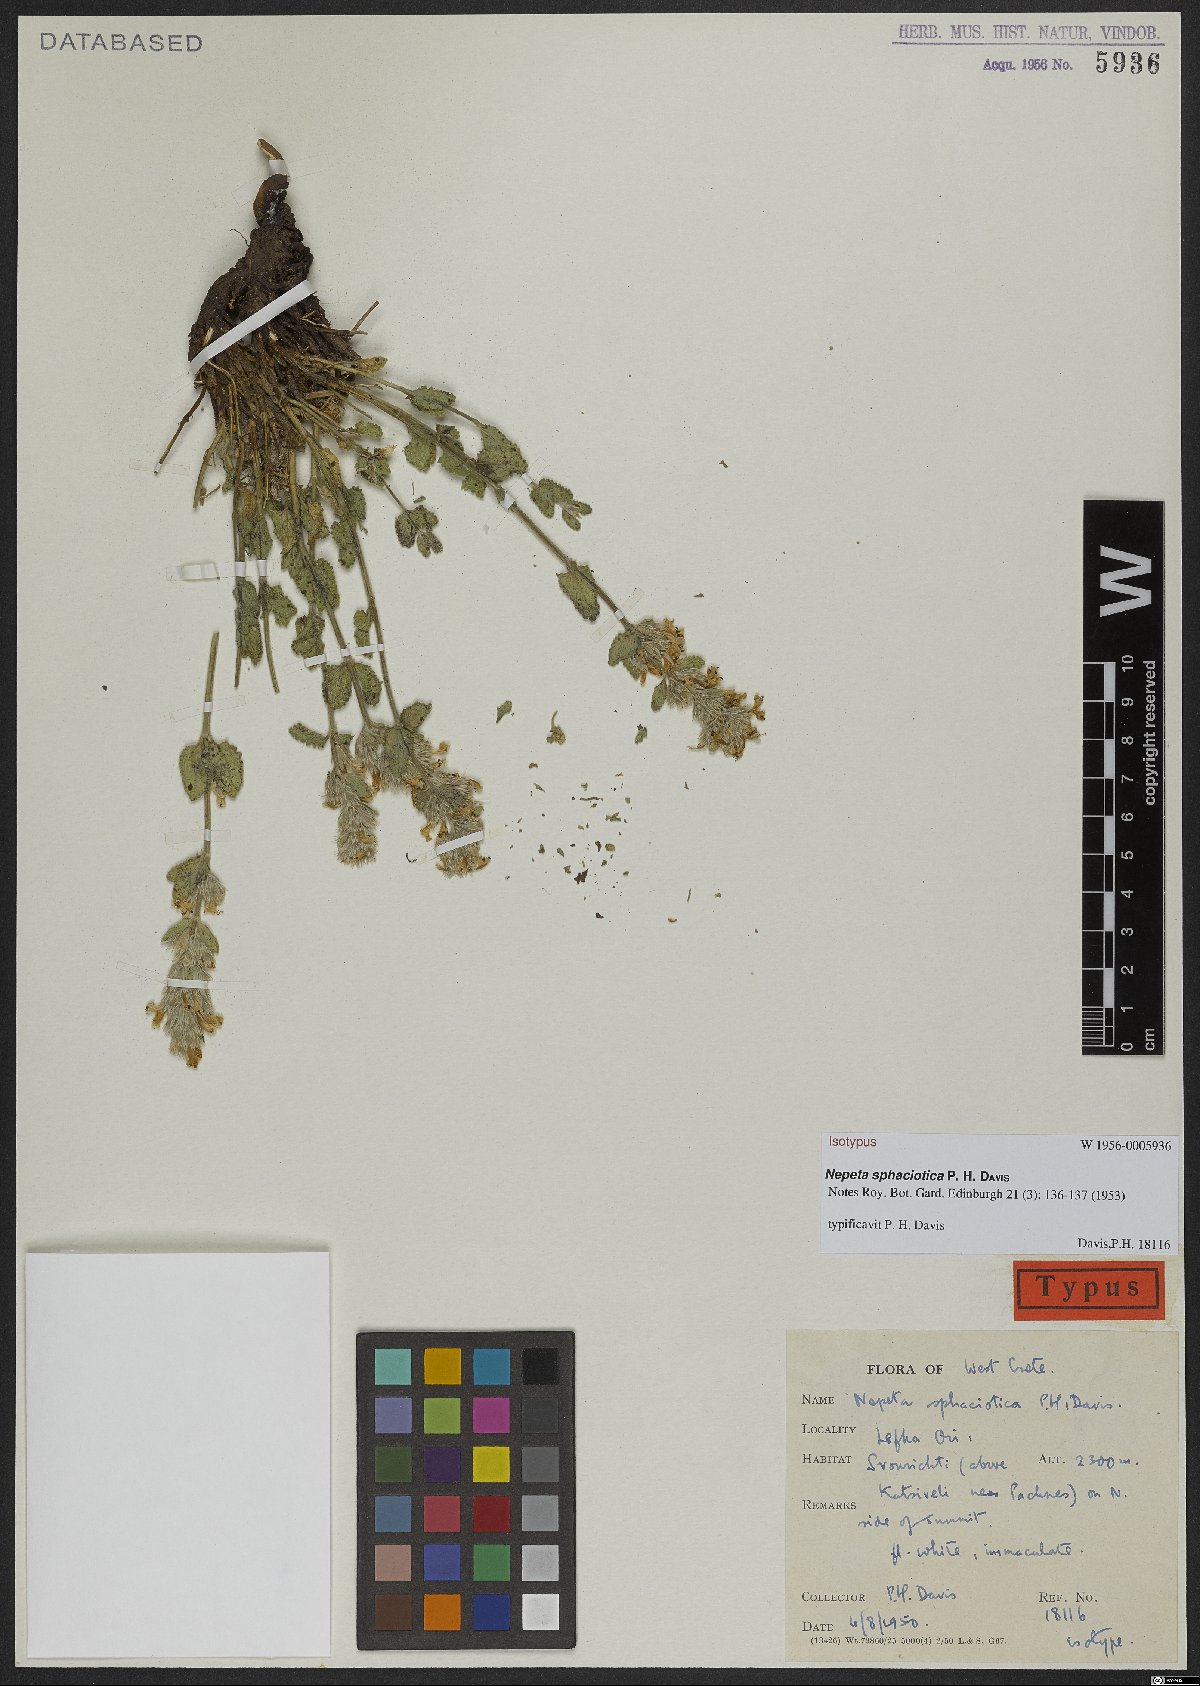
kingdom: Plantae
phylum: Tracheophyta
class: Magnoliopsida
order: Lamiales
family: Lamiaceae
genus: Nepeta
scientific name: Nepeta sphaciotica
